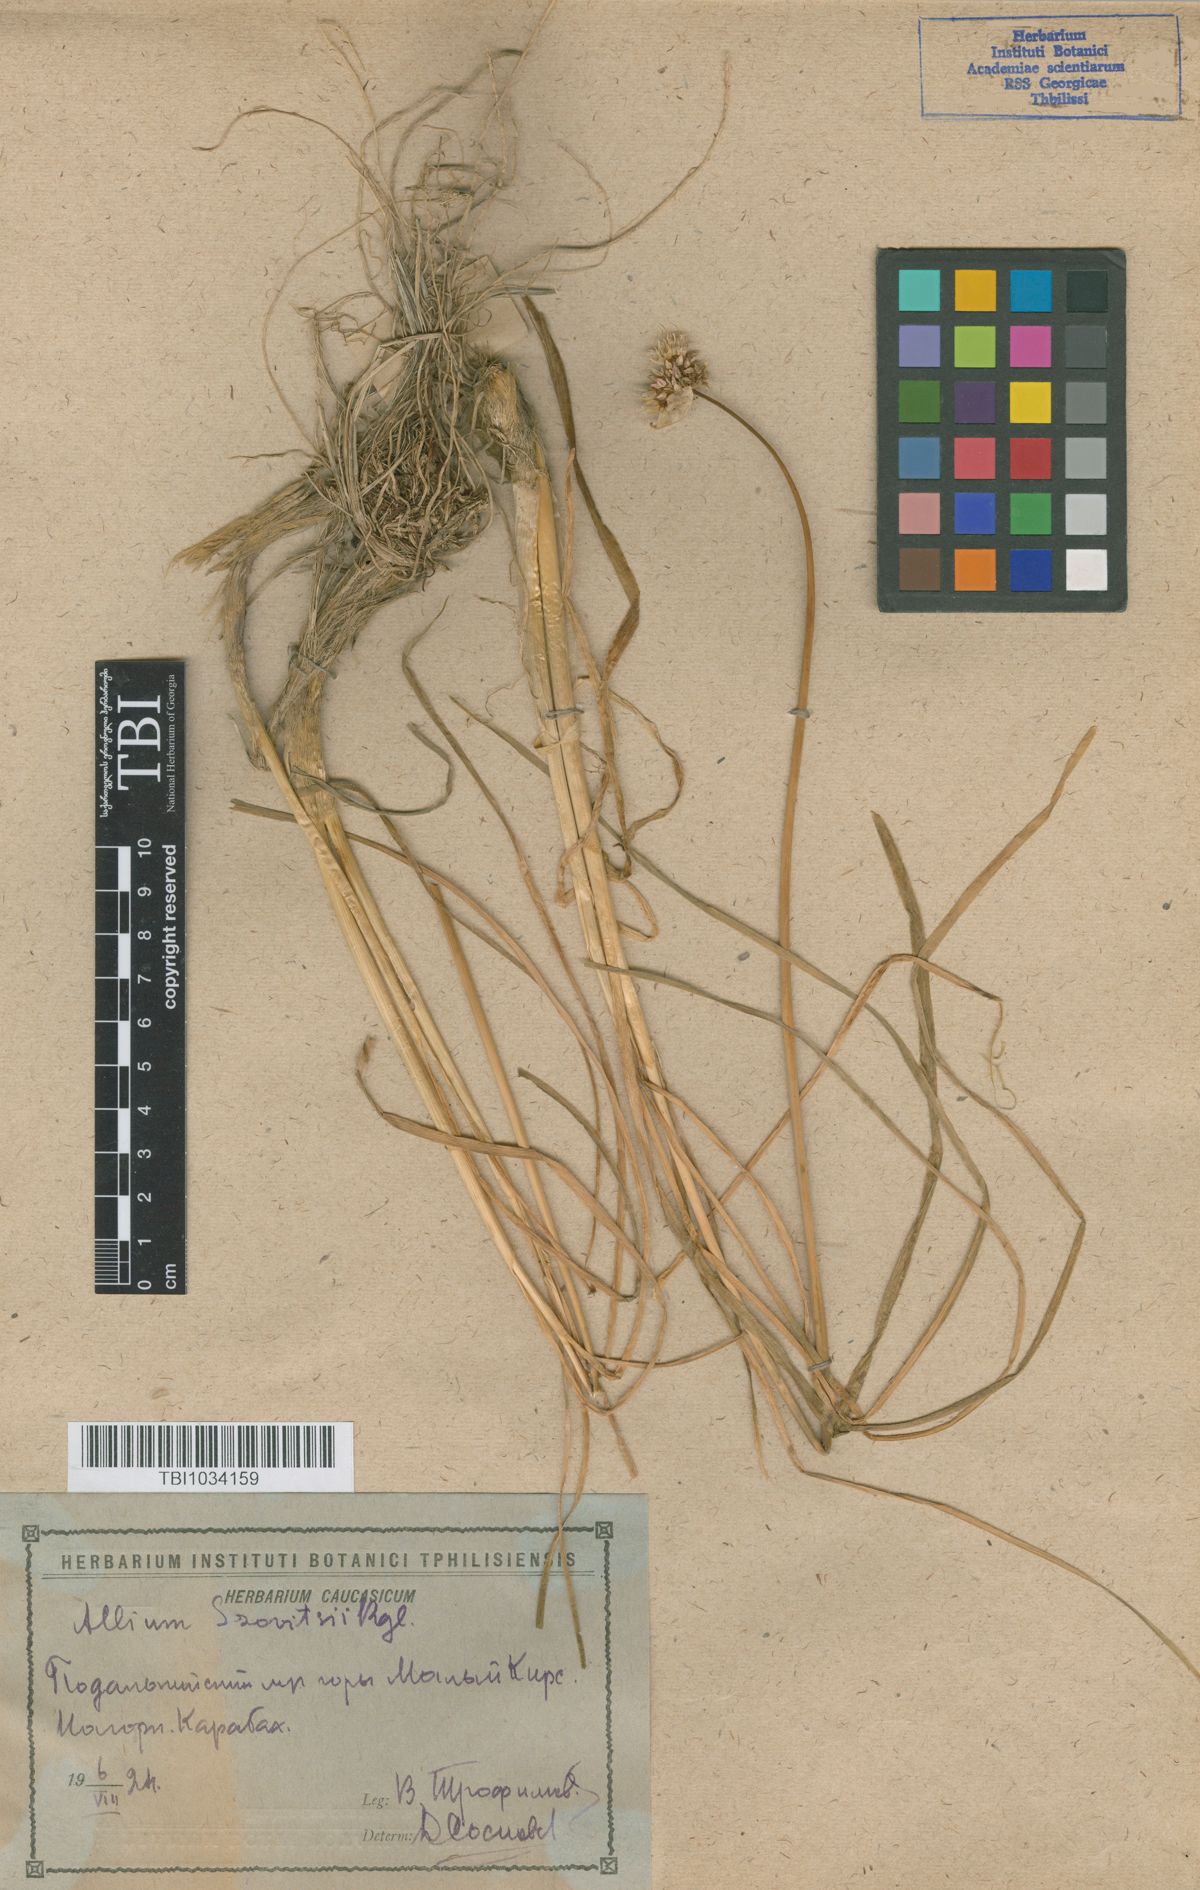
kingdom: Plantae
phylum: Tracheophyta
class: Liliopsida
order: Asparagales
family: Amaryllidaceae
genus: Allium
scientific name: Allium szovitsii
